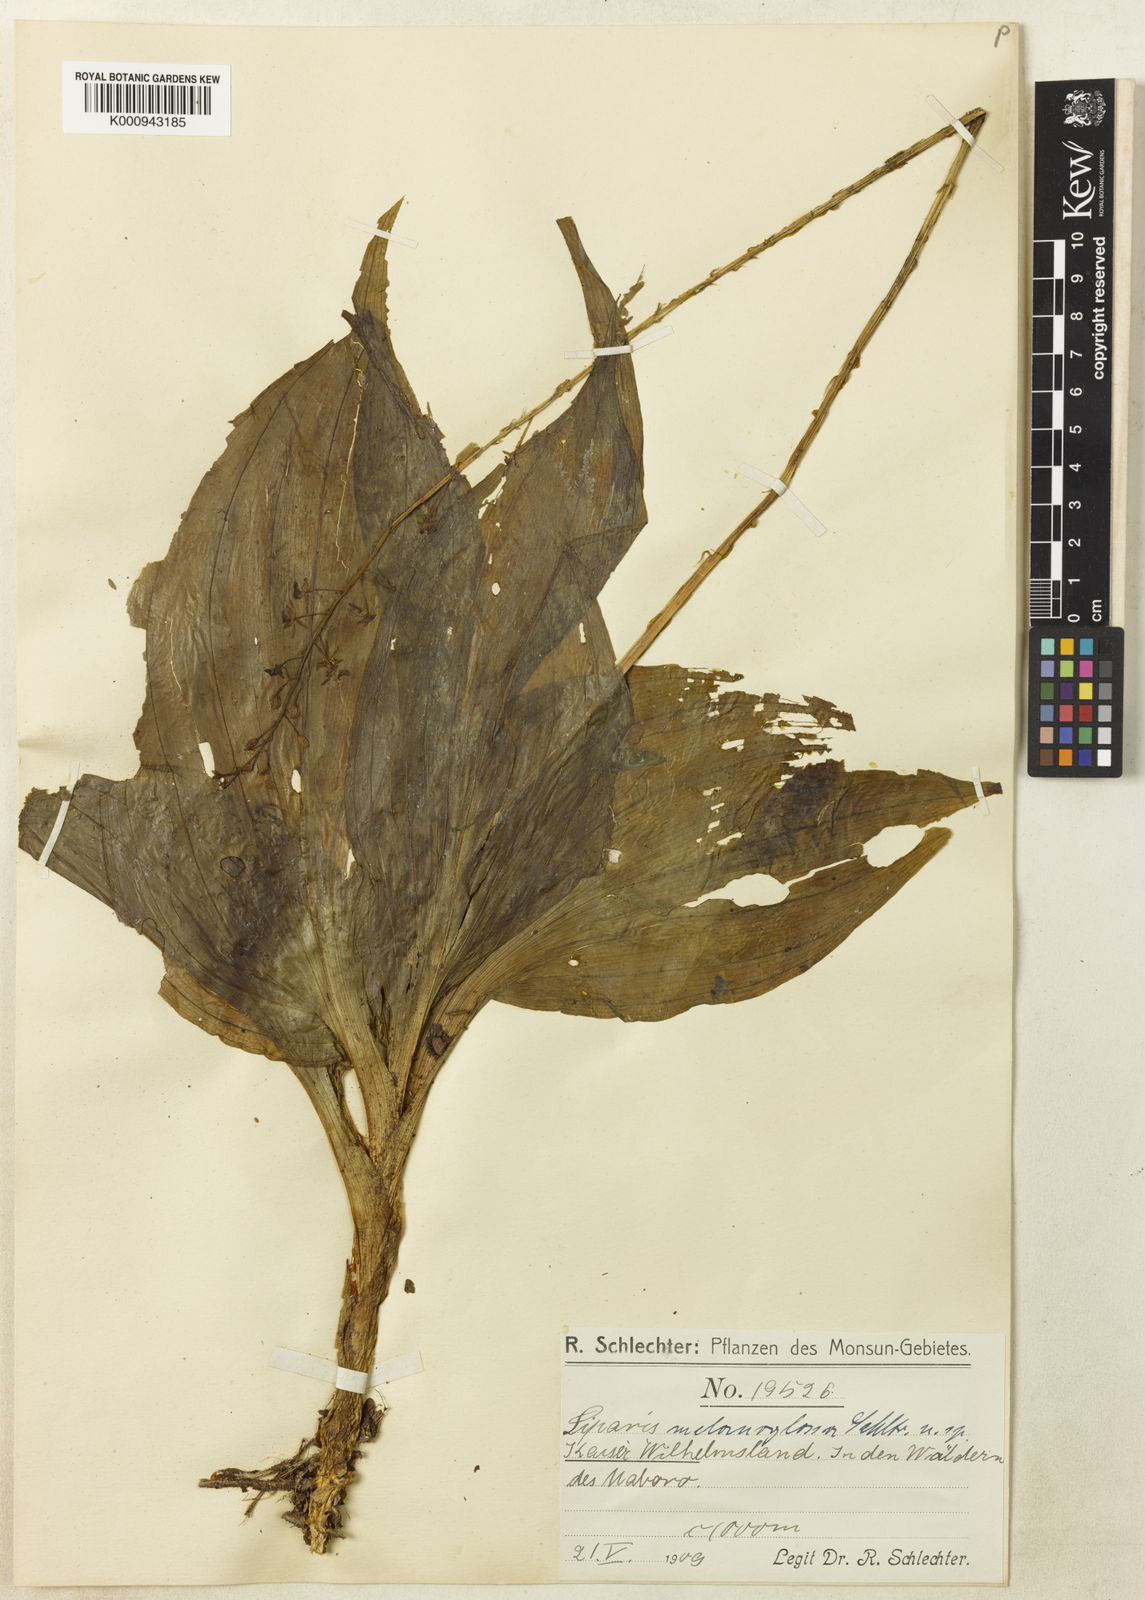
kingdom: Plantae
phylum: Tracheophyta
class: Liliopsida
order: Asparagales
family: Orchidaceae
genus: Liparis
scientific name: Liparis rheedei
